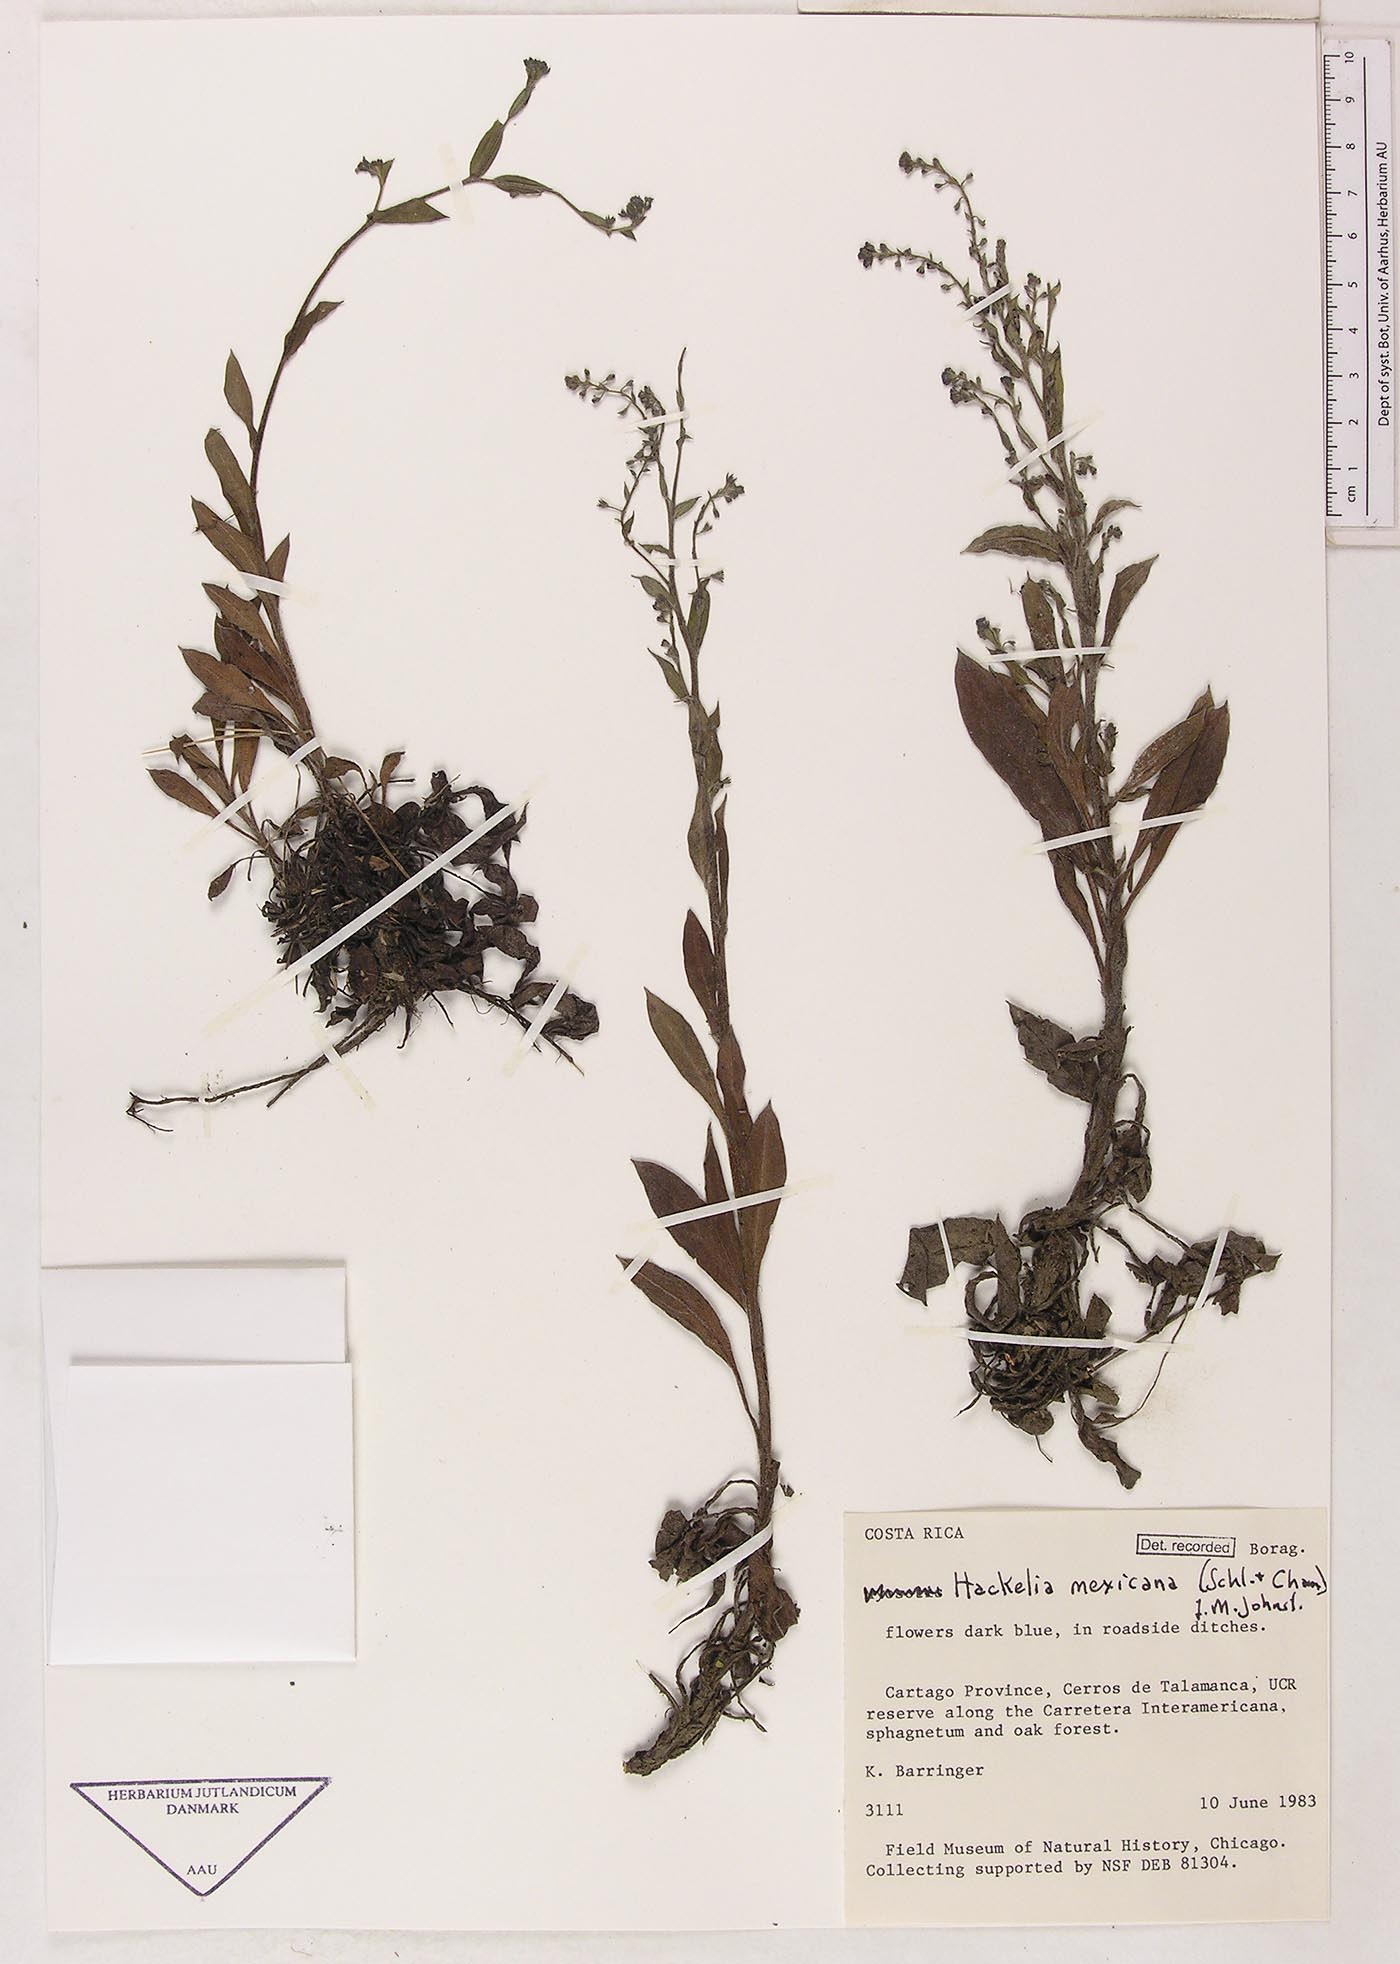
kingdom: Plantae
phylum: Tracheophyta
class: Magnoliopsida
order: Boraginales
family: Boraginaceae
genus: Hackelia
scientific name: Hackelia revoluta
